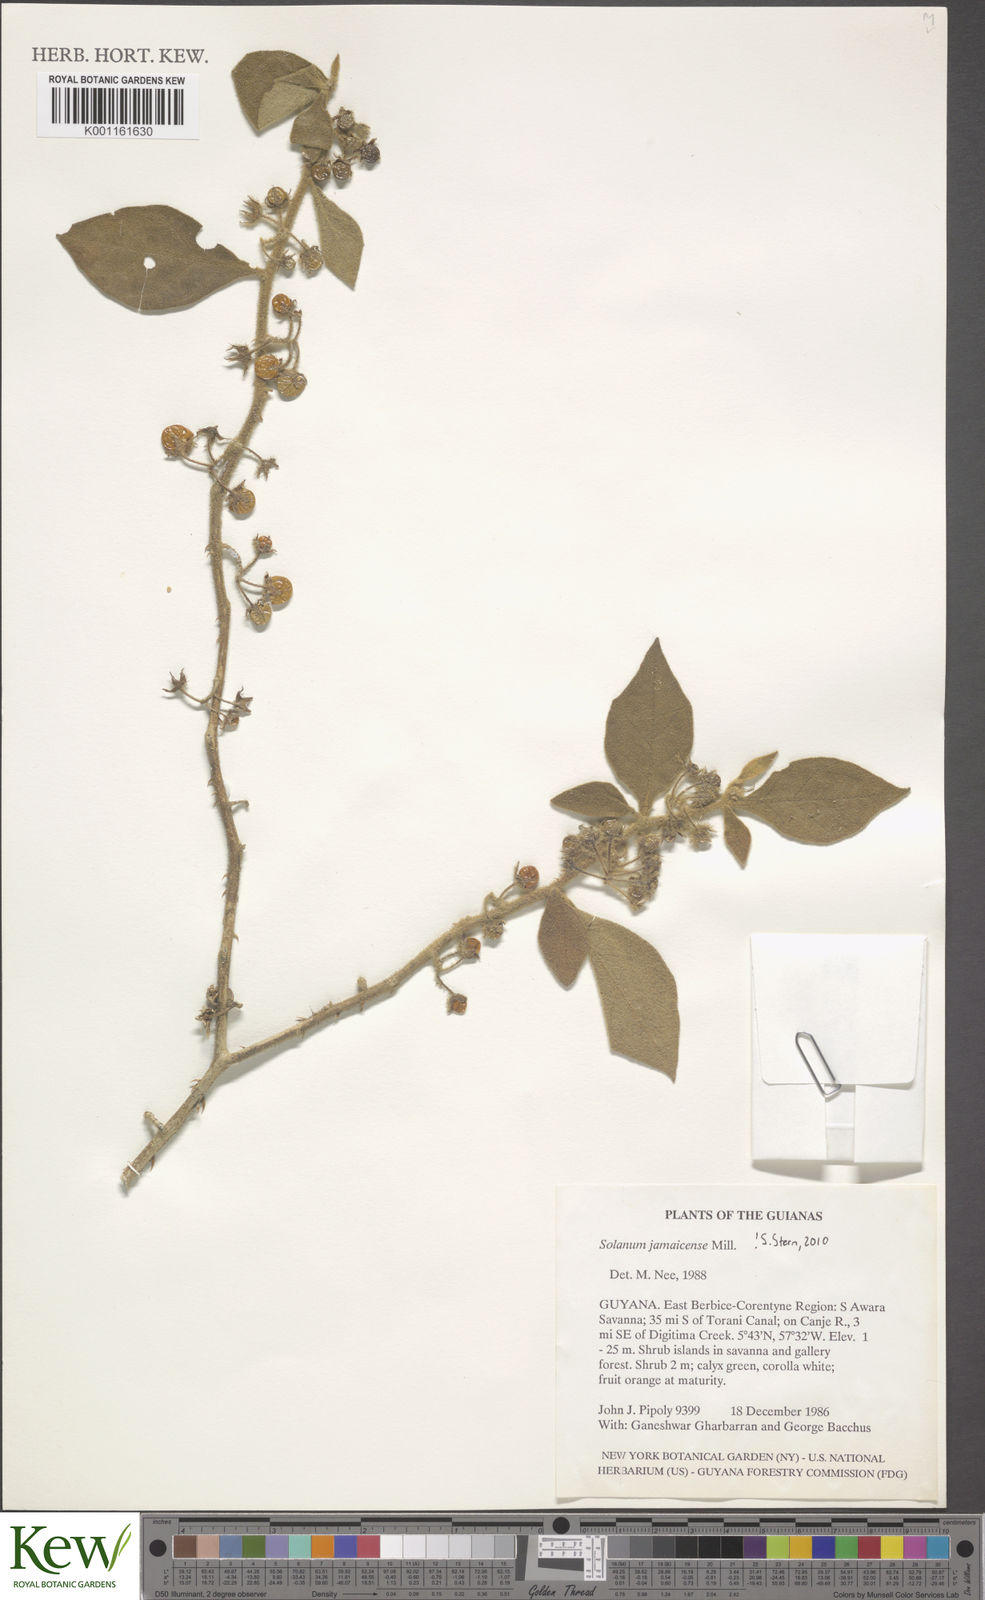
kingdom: Plantae
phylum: Tracheophyta
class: Magnoliopsida
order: Solanales
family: Solanaceae
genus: Solanum
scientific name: Solanum jamaicense
